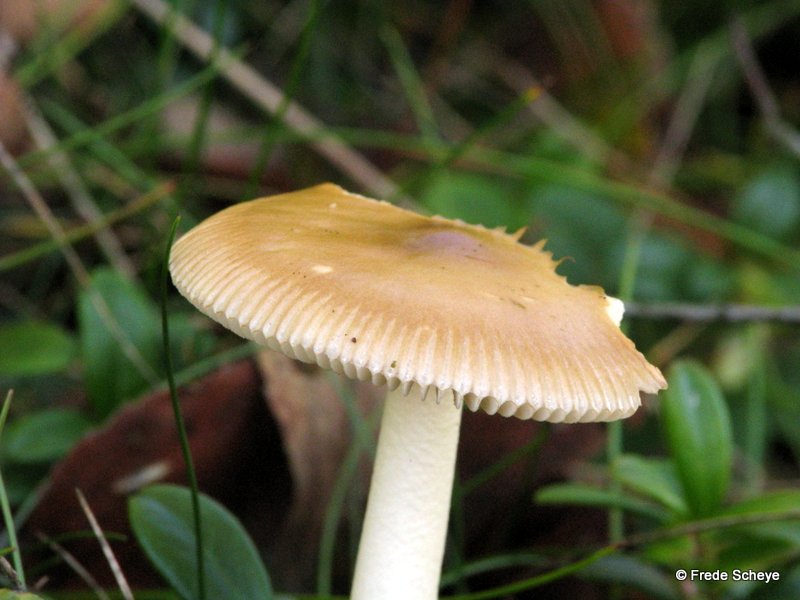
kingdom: Fungi
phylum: Basidiomycota
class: Agaricomycetes
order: Agaricales
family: Amanitaceae
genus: Amanita
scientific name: Amanita fulva
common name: brun kam-fluesvamp
